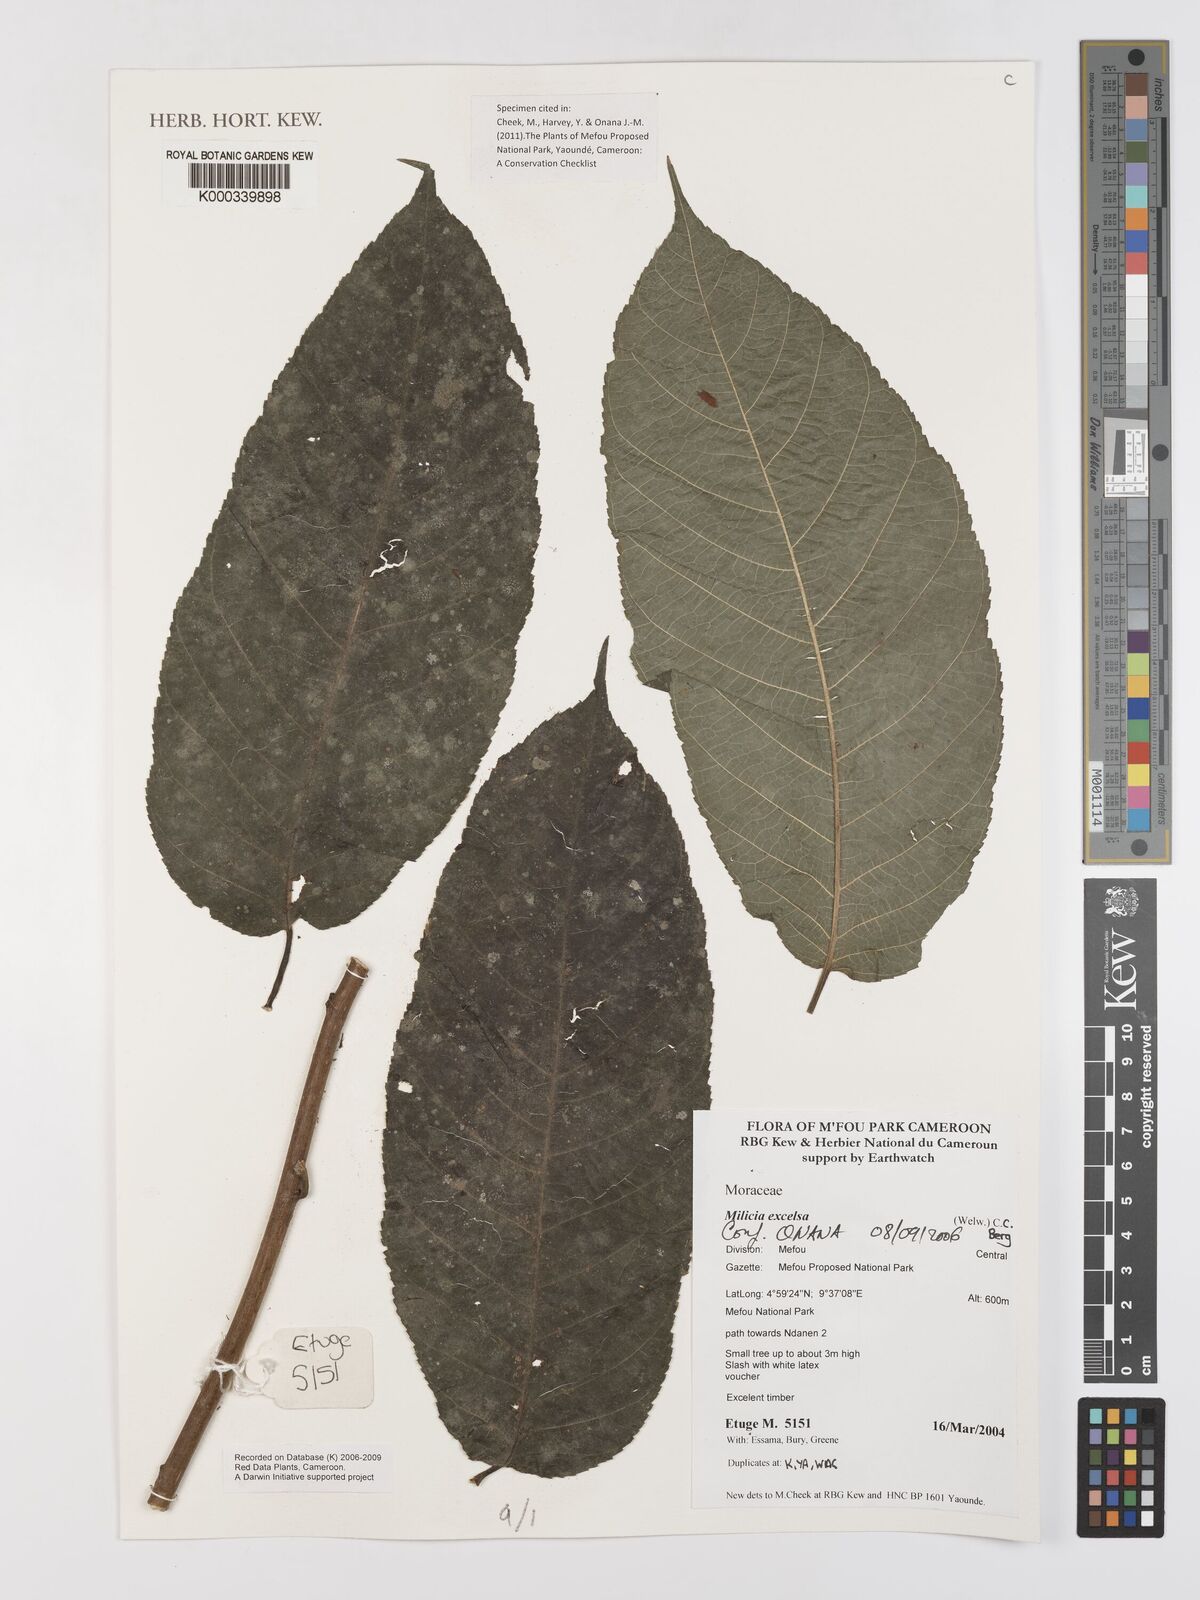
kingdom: Plantae
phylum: Tracheophyta
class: Magnoliopsida
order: Rosales
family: Moraceae
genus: Milicia
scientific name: Milicia excelsa
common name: African teak
